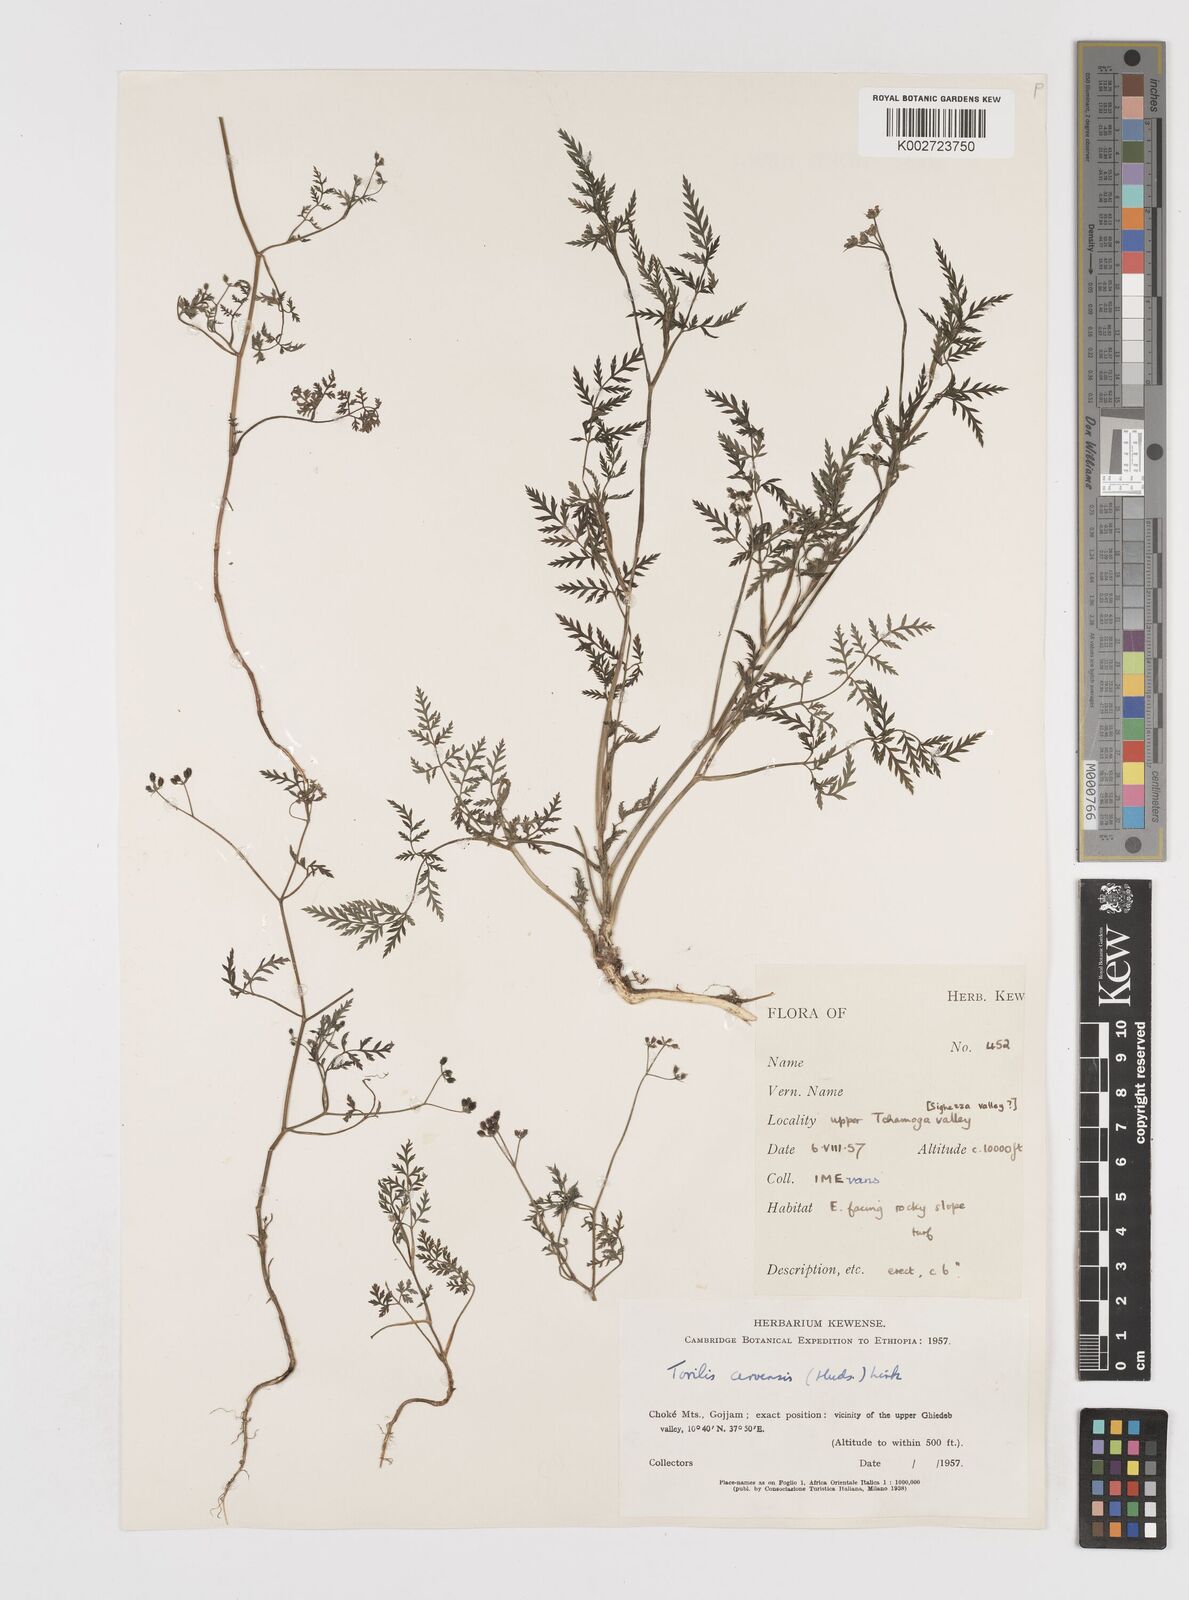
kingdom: Plantae
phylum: Tracheophyta
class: Magnoliopsida
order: Apiales
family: Apiaceae
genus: Torilis
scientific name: Torilis arvensis
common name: Spreading hedge-parsley
